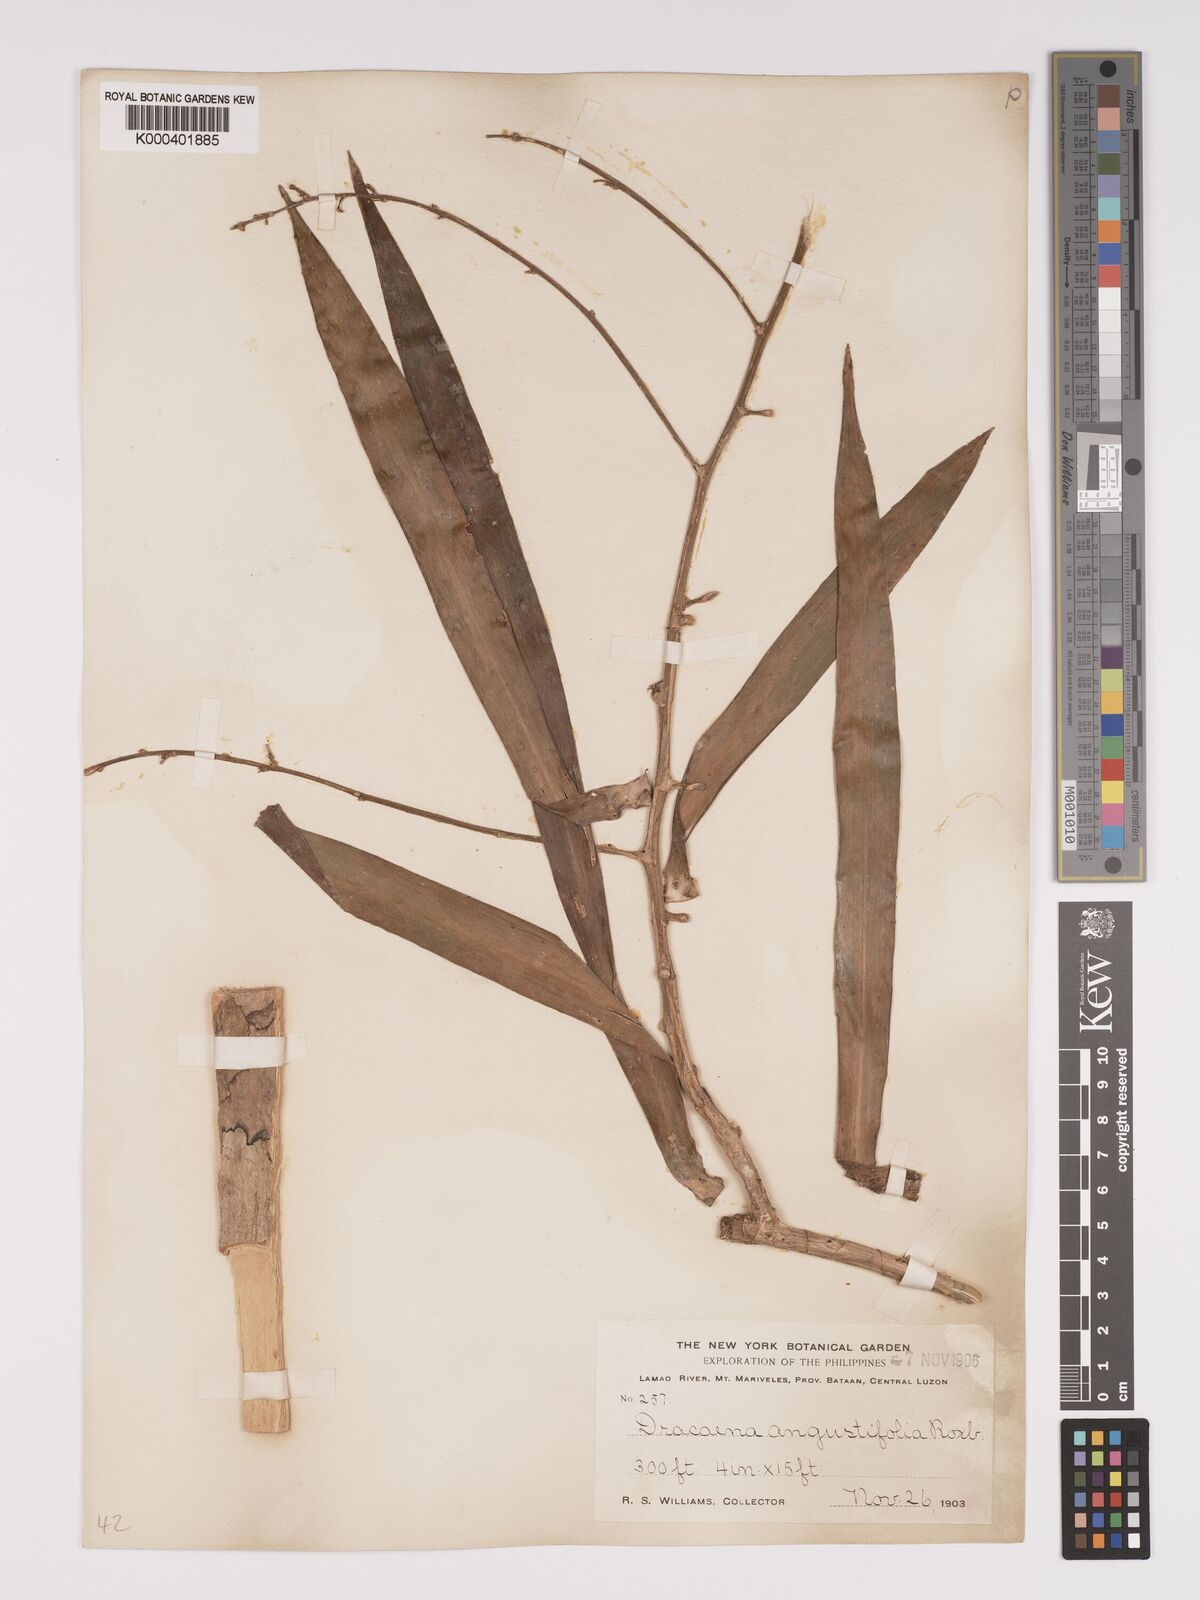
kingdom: Plantae
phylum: Tracheophyta
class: Liliopsida
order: Asparagales
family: Asparagaceae
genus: Dracaena
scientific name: Dracaena angustifolia
